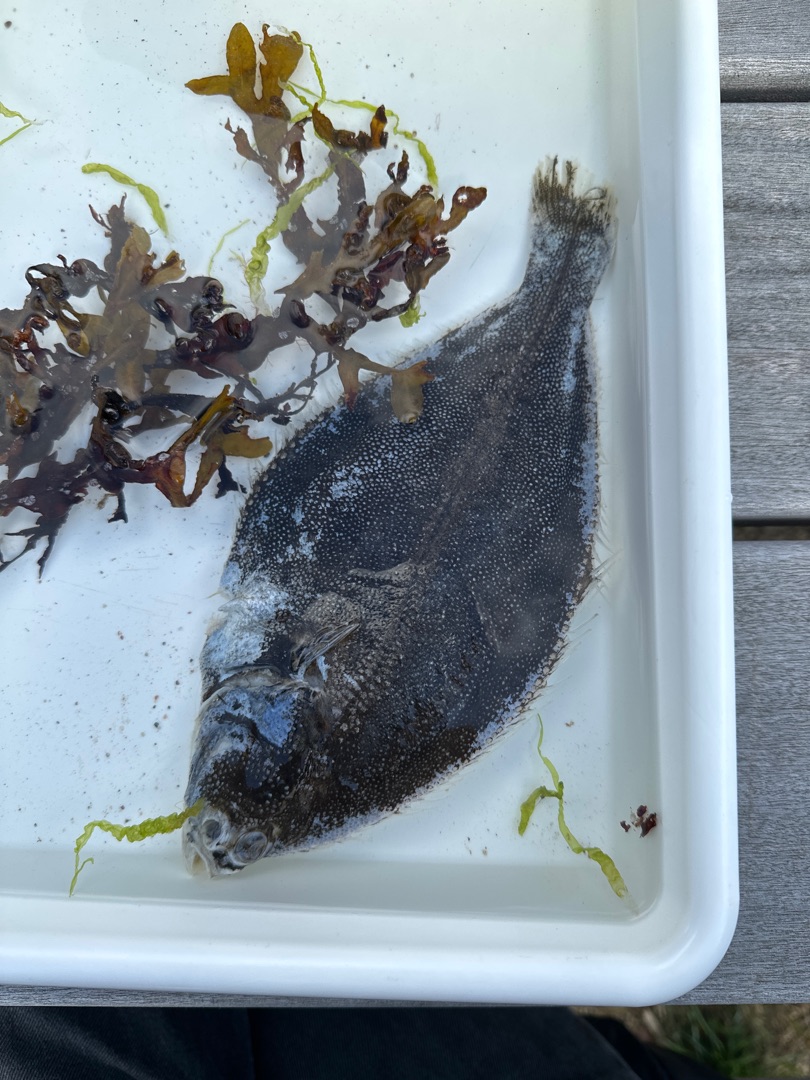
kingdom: Animalia
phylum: Chordata
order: Pleuronectiformes
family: Pleuronectidae
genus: Platichthys
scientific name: Platichthys flesus
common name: Skrubbe
